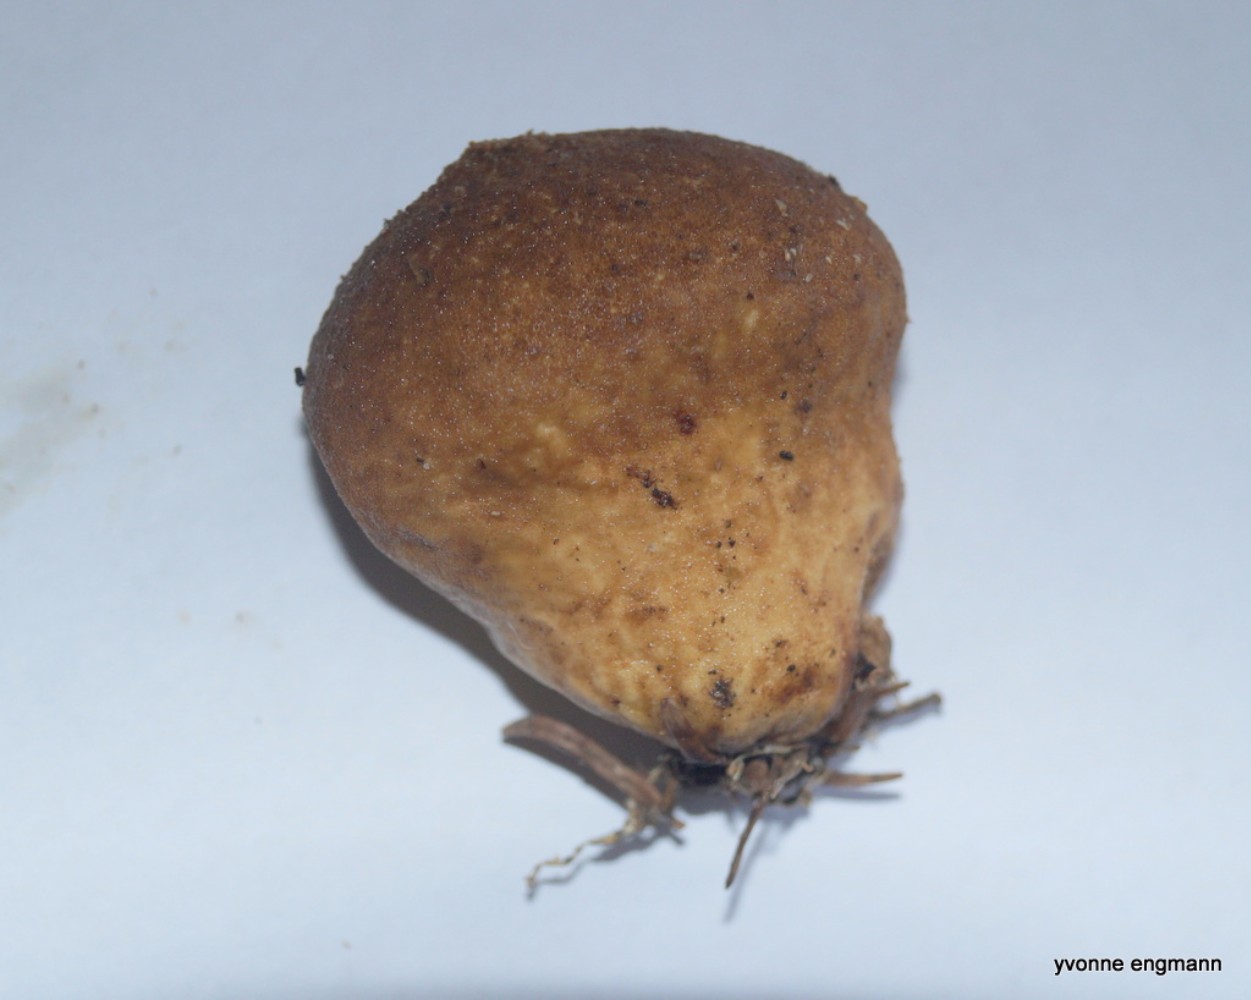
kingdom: Fungi
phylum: Basidiomycota
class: Agaricomycetes
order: Agaricales
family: Lycoperdaceae
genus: Lycoperdon
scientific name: Lycoperdon nigrescens
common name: sortagtig støvbold
